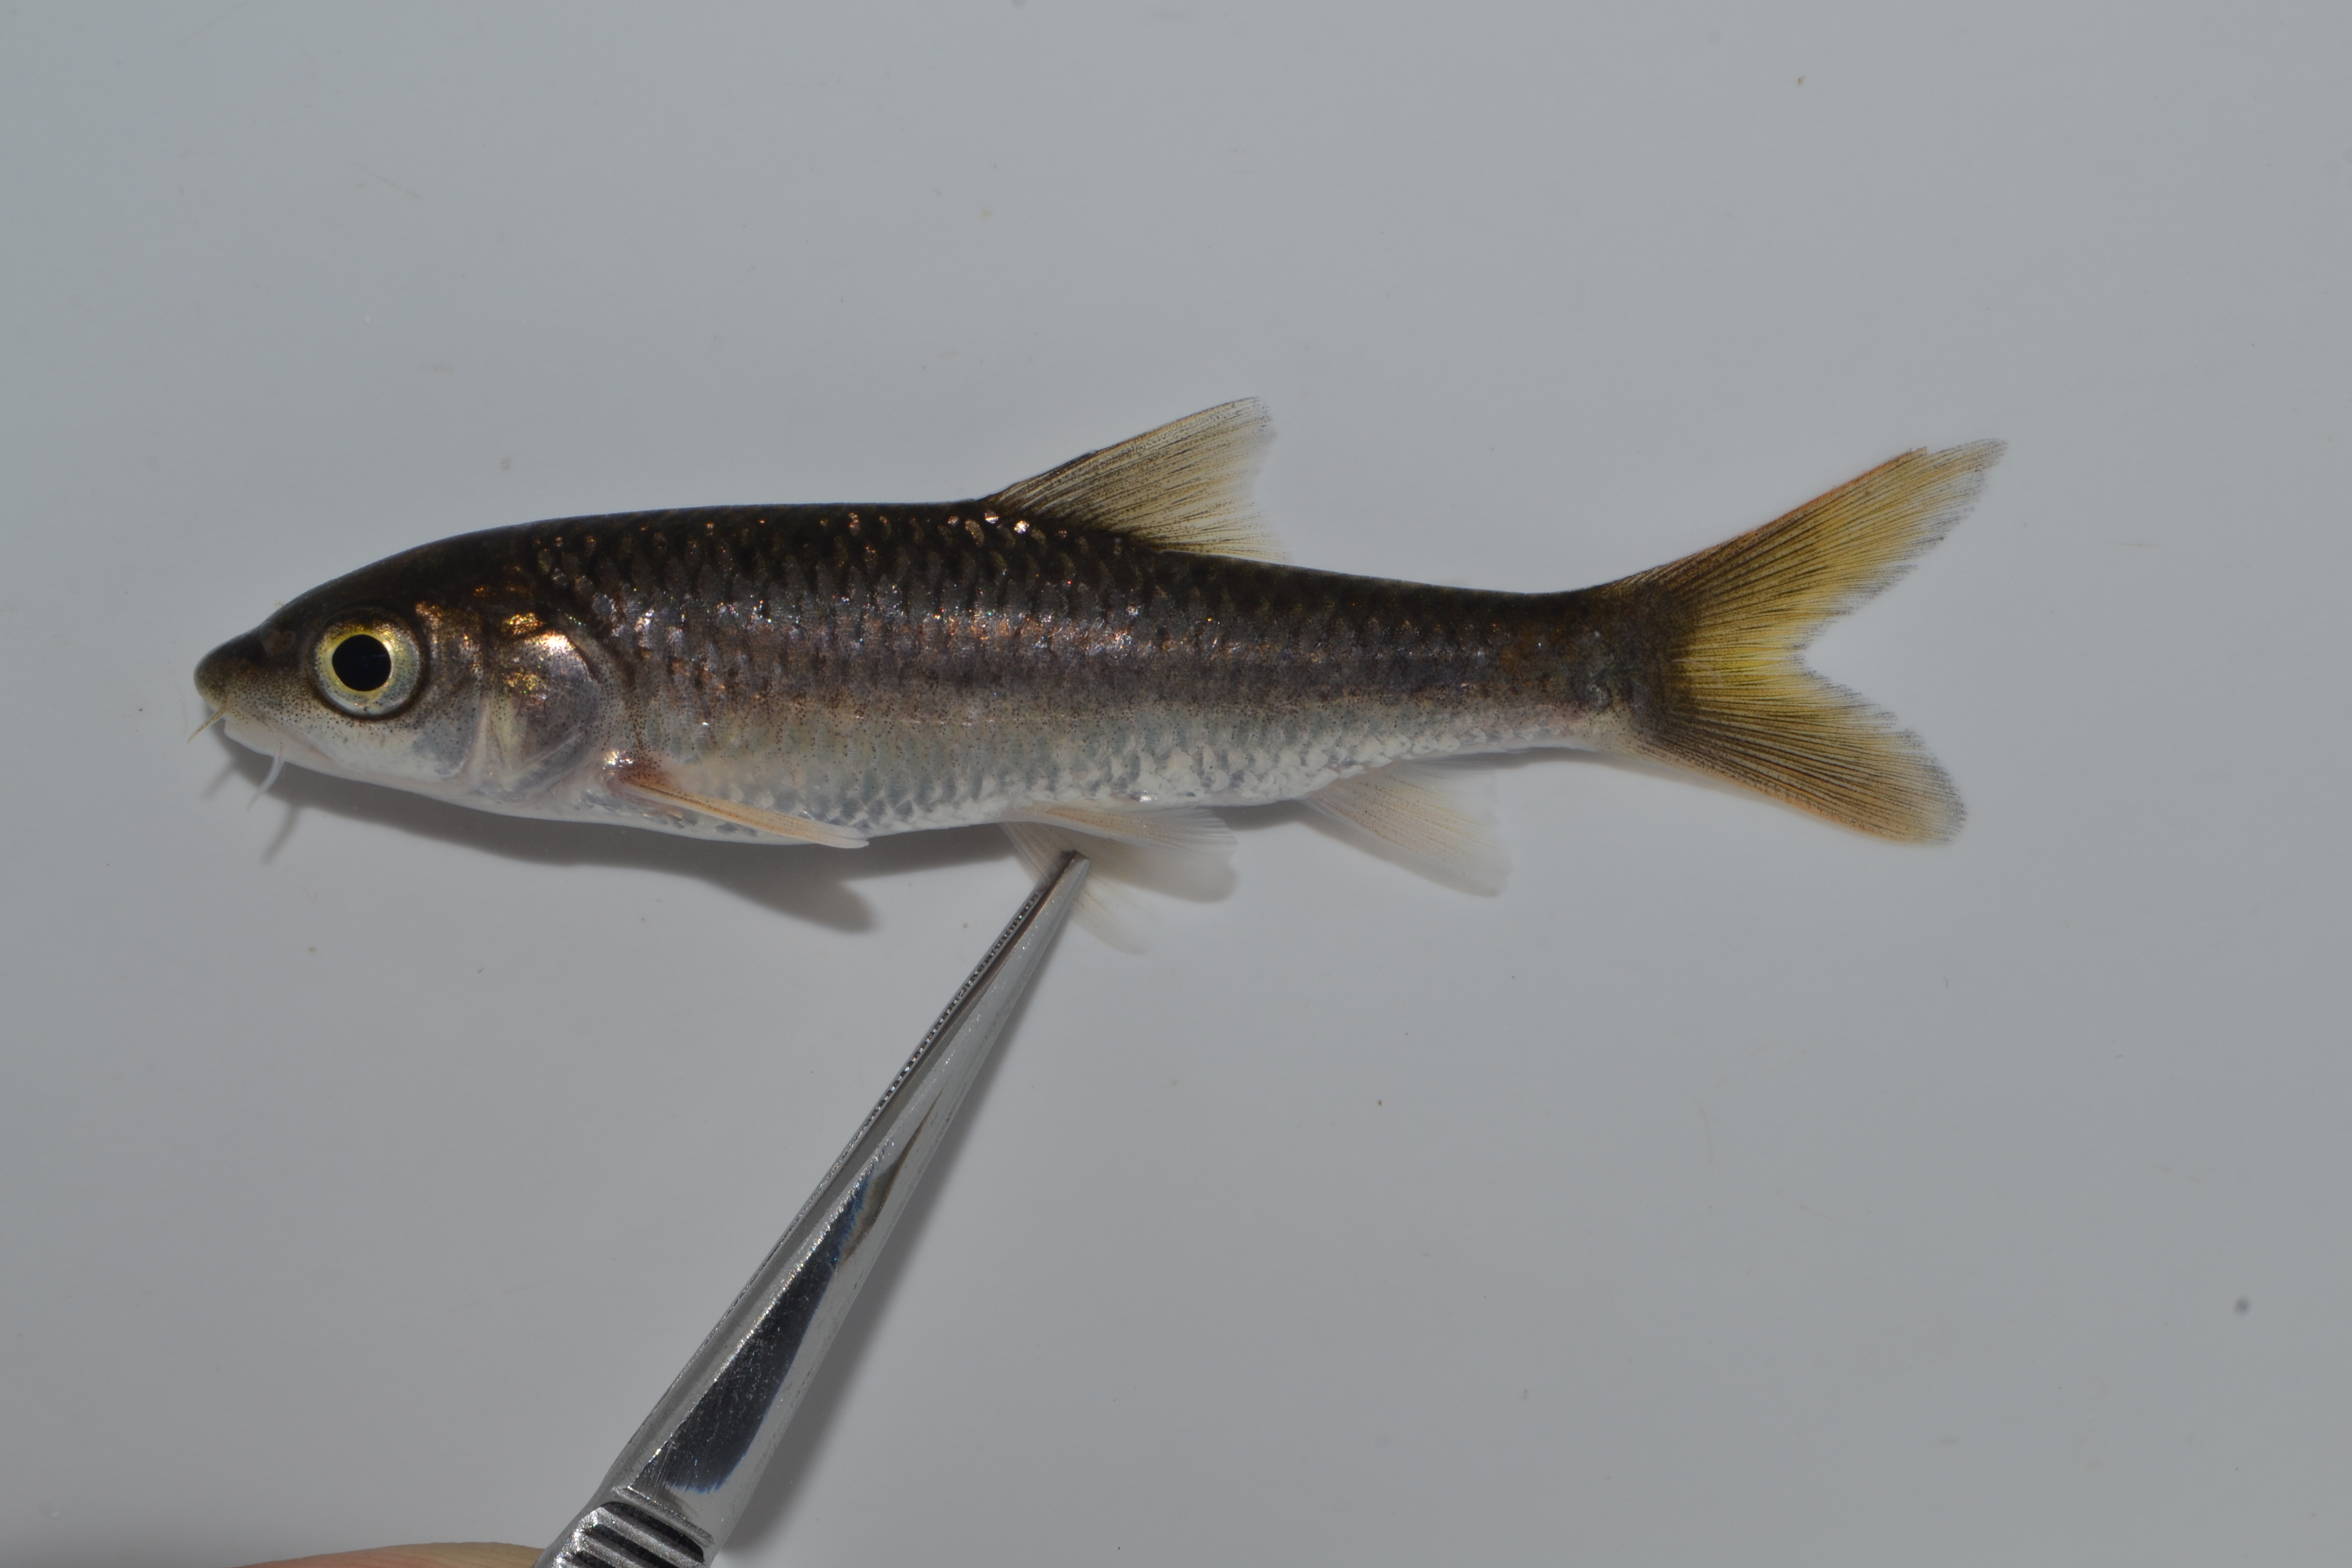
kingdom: Animalia
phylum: Chordata
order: Cypriniformes
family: Cyprinidae
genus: Labeobarbus
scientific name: Labeobarbus natalensis
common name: Scaly
